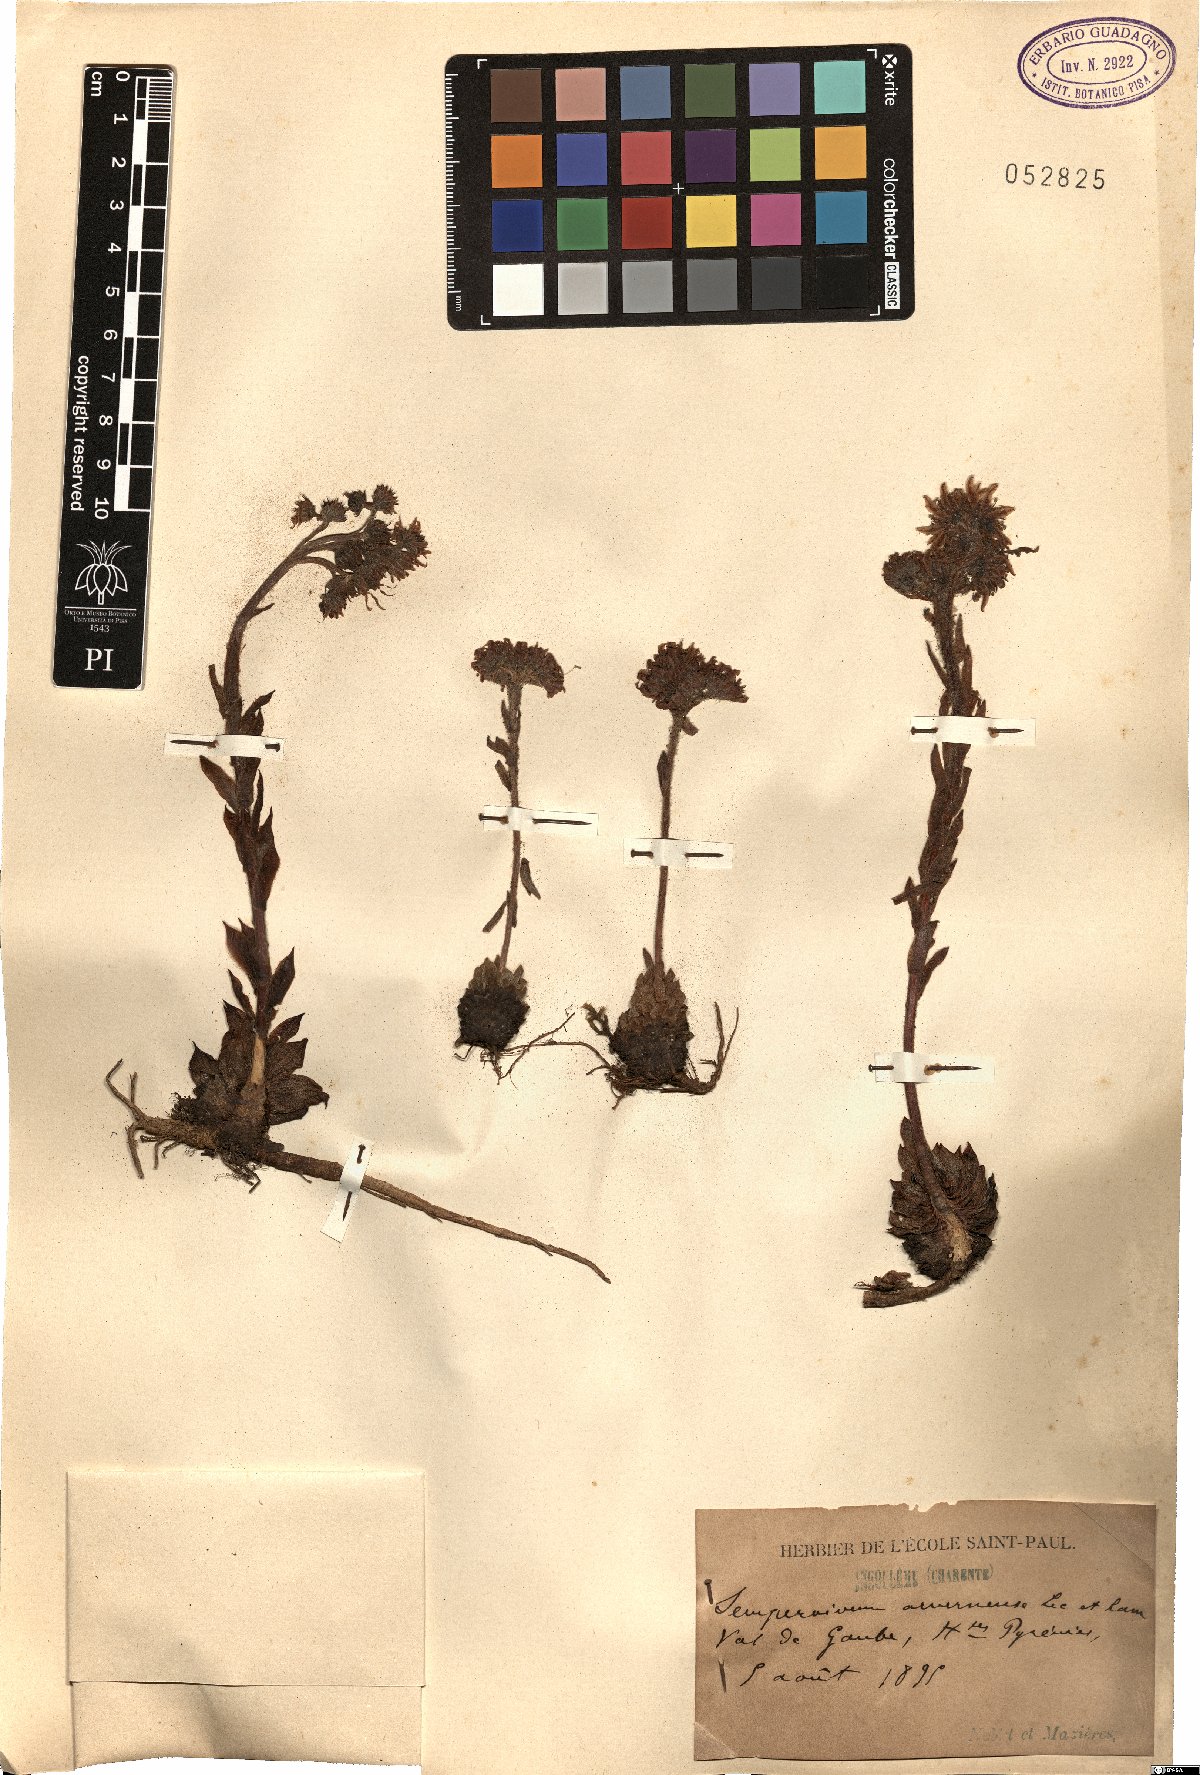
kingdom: Plantae
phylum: Tracheophyta
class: Magnoliopsida
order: Saxifragales
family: Crassulaceae
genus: Sempervivum
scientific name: Sempervivum tectorum
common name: House-leek
